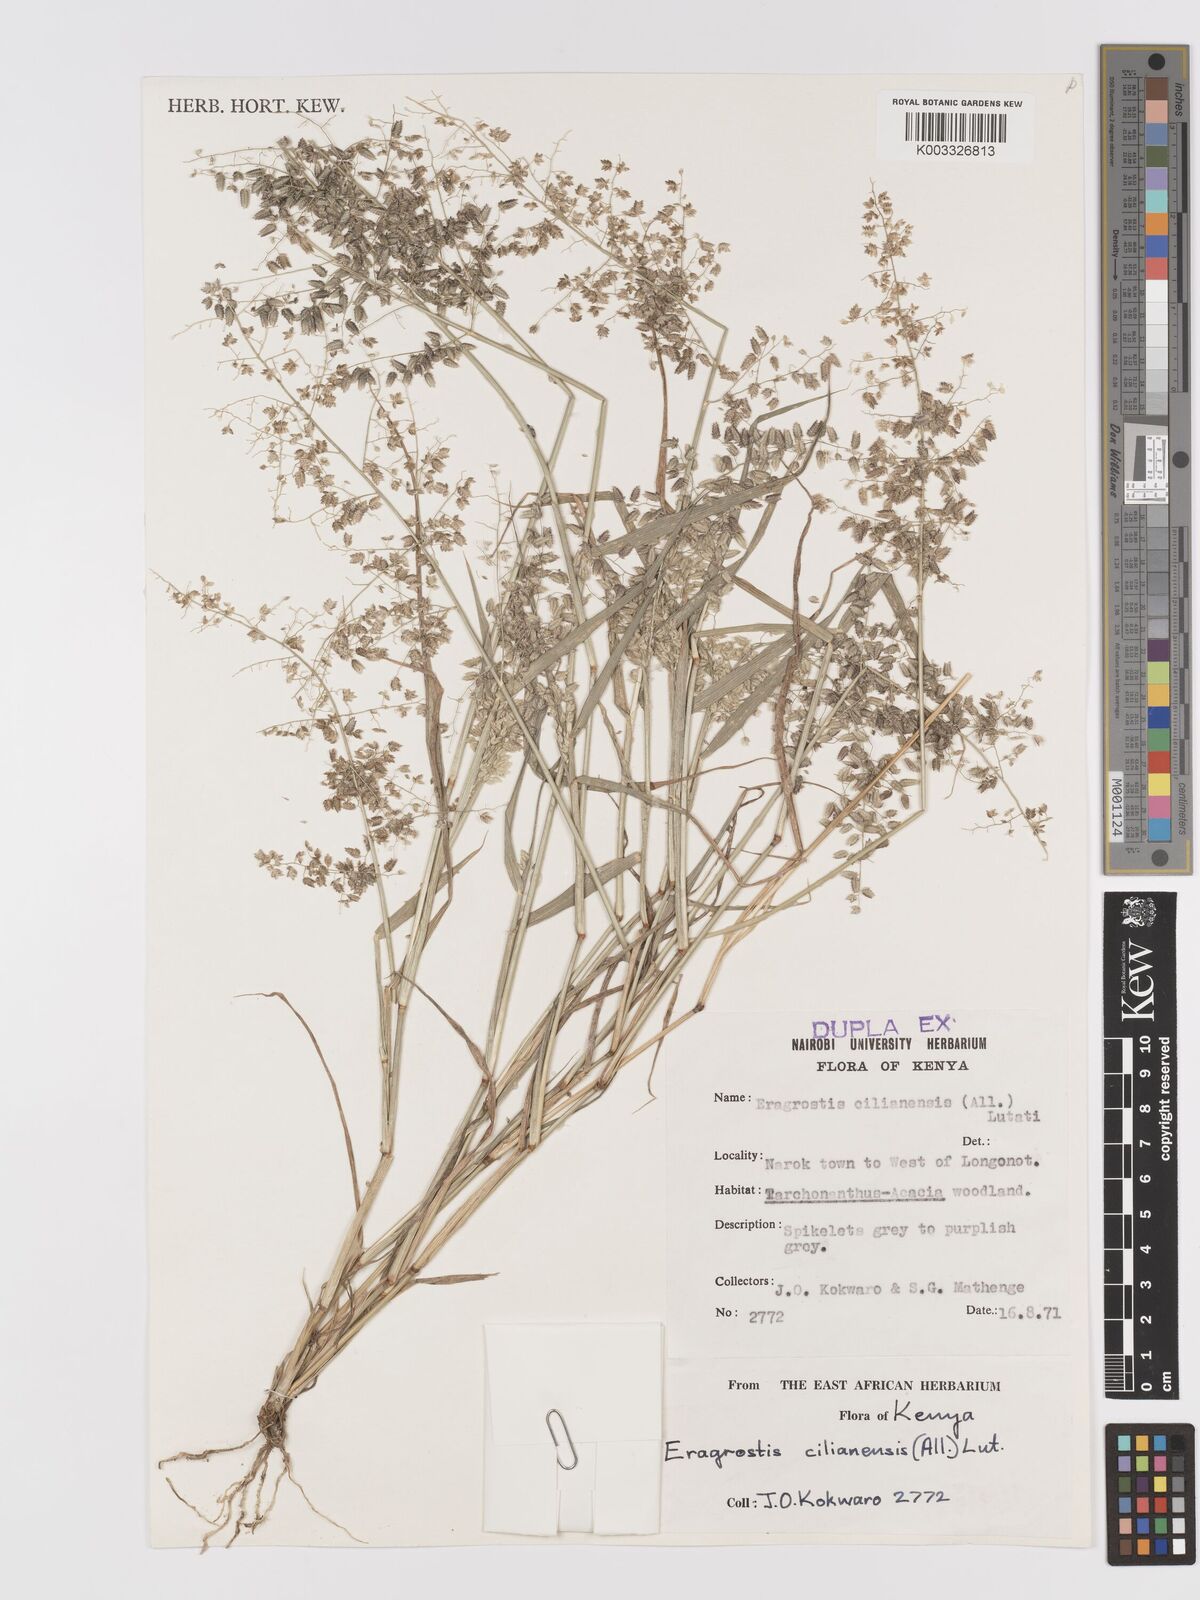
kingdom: Plantae
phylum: Tracheophyta
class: Liliopsida
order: Poales
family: Poaceae
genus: Eragrostis
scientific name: Eragrostis cilianensis
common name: Stinkgrass
